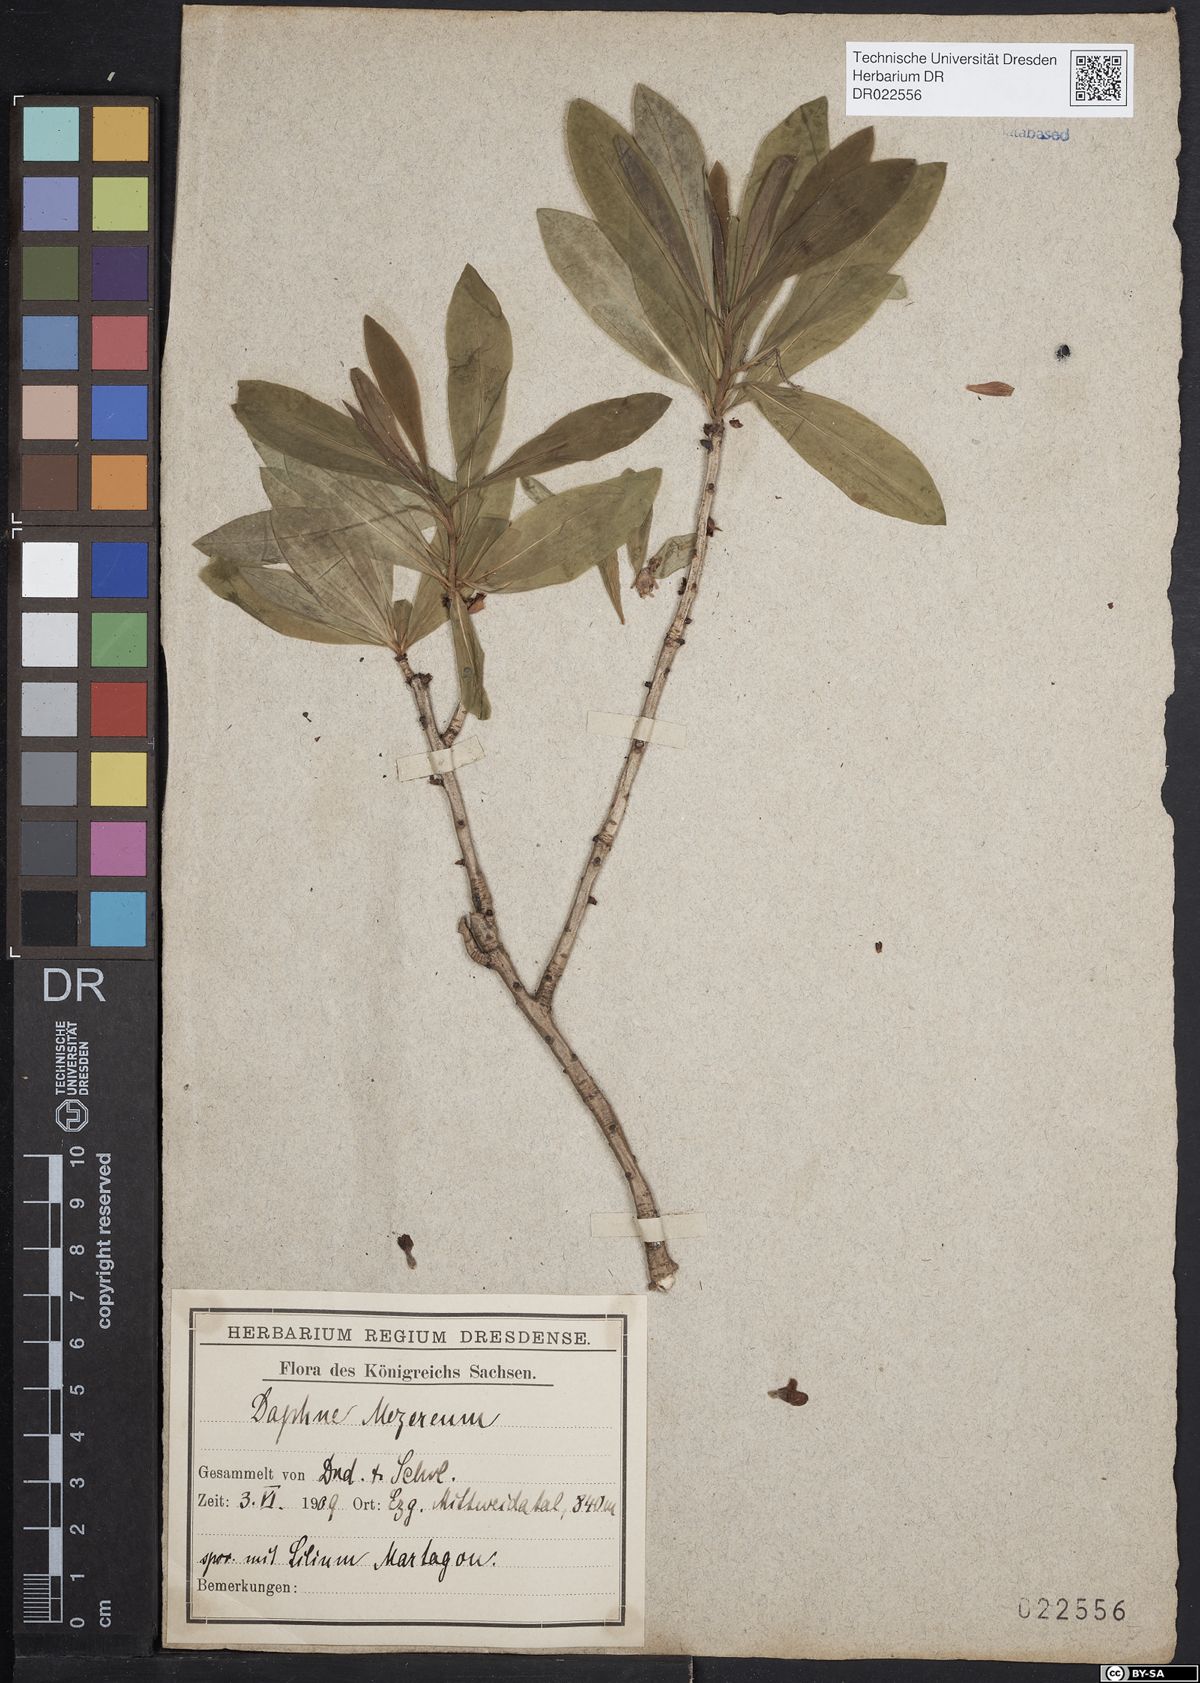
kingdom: Plantae
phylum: Tracheophyta
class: Magnoliopsida
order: Malvales
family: Thymelaeaceae
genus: Daphne
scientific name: Daphne mezereum
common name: Mezereon
